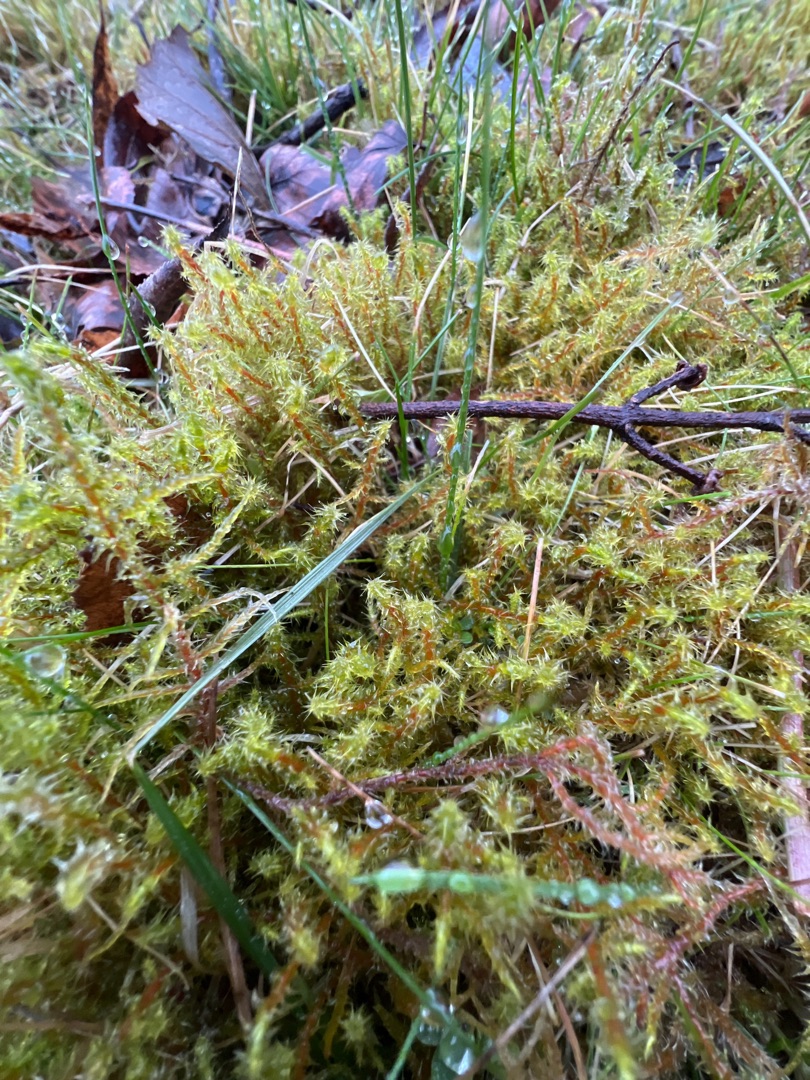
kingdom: Plantae
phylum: Bryophyta
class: Bryopsida
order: Hypnales
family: Hylocomiaceae
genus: Rhytidiadelphus
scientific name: Rhytidiadelphus squarrosus
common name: Plæne-kransemos
